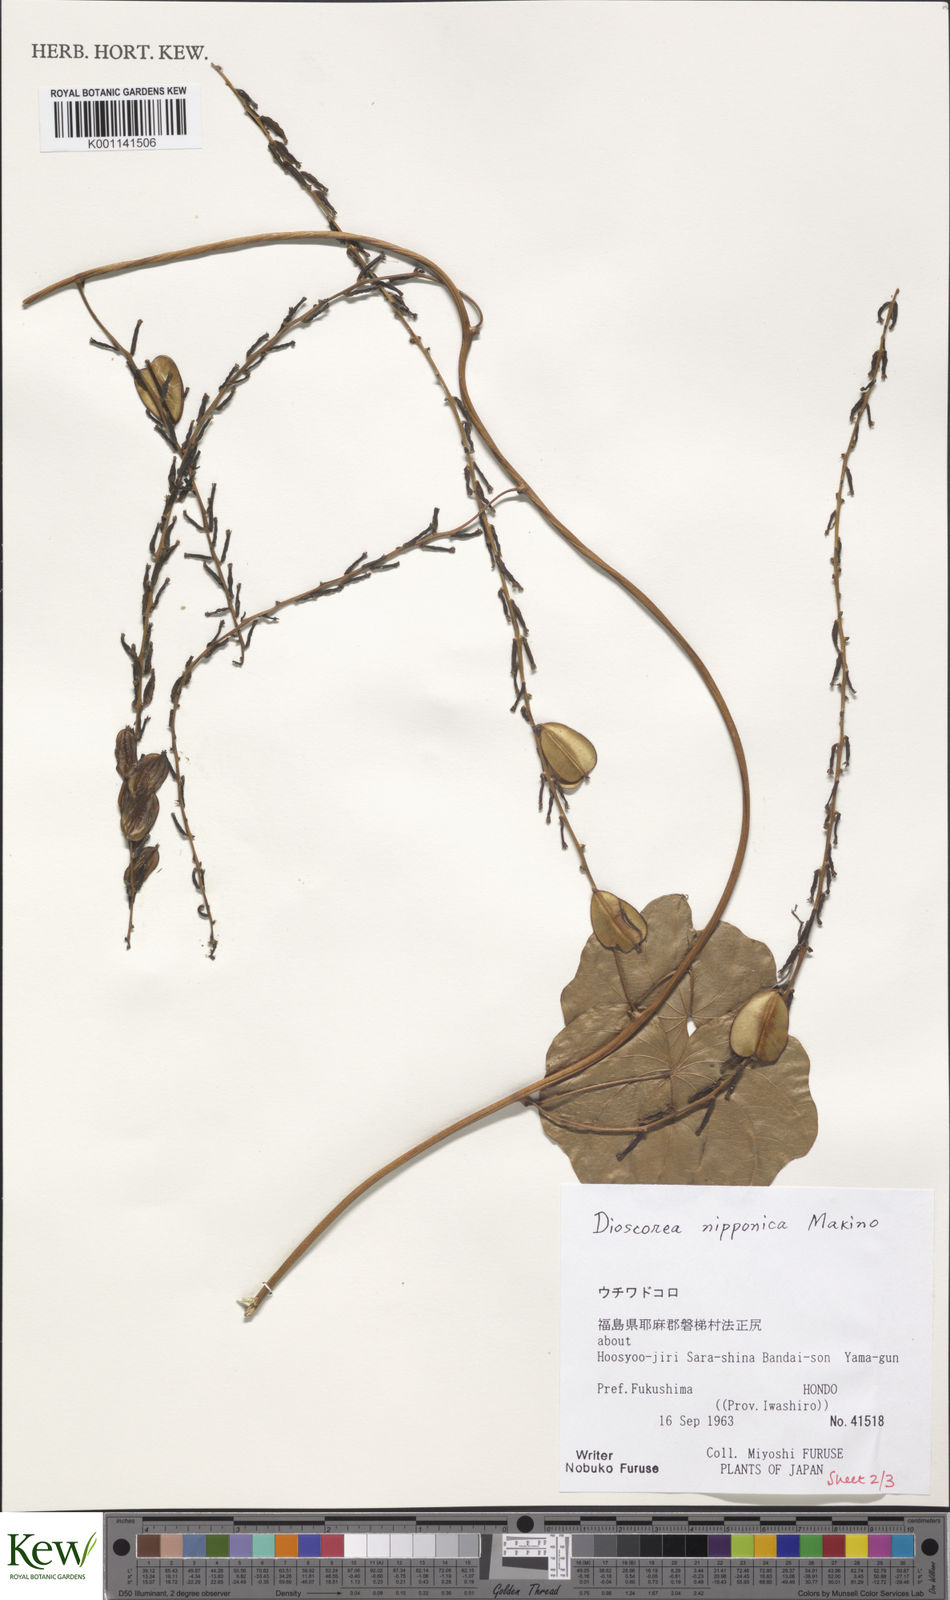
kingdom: Plantae
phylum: Tracheophyta
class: Liliopsida
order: Dioscoreales
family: Dioscoreaceae
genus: Dioscorea
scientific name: Dioscorea nipponica
